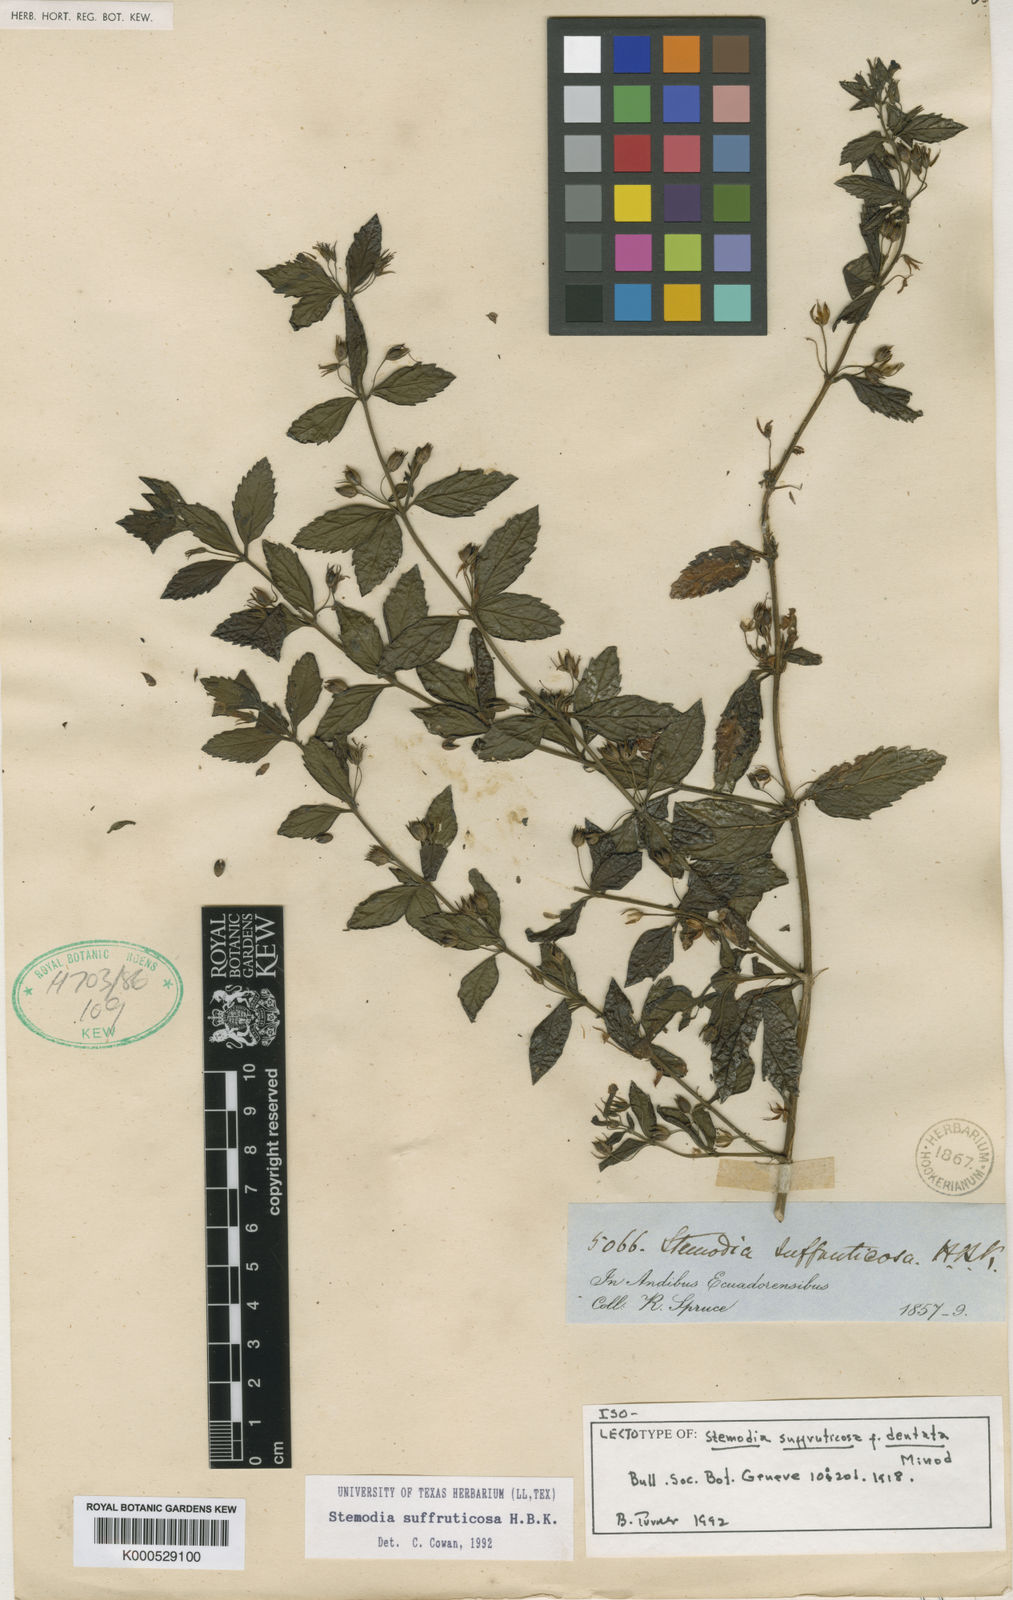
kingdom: Plantae
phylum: Tracheophyta
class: Magnoliopsida
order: Lamiales
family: Plantaginaceae
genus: Stemodia
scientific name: Stemodia suffruticosa
